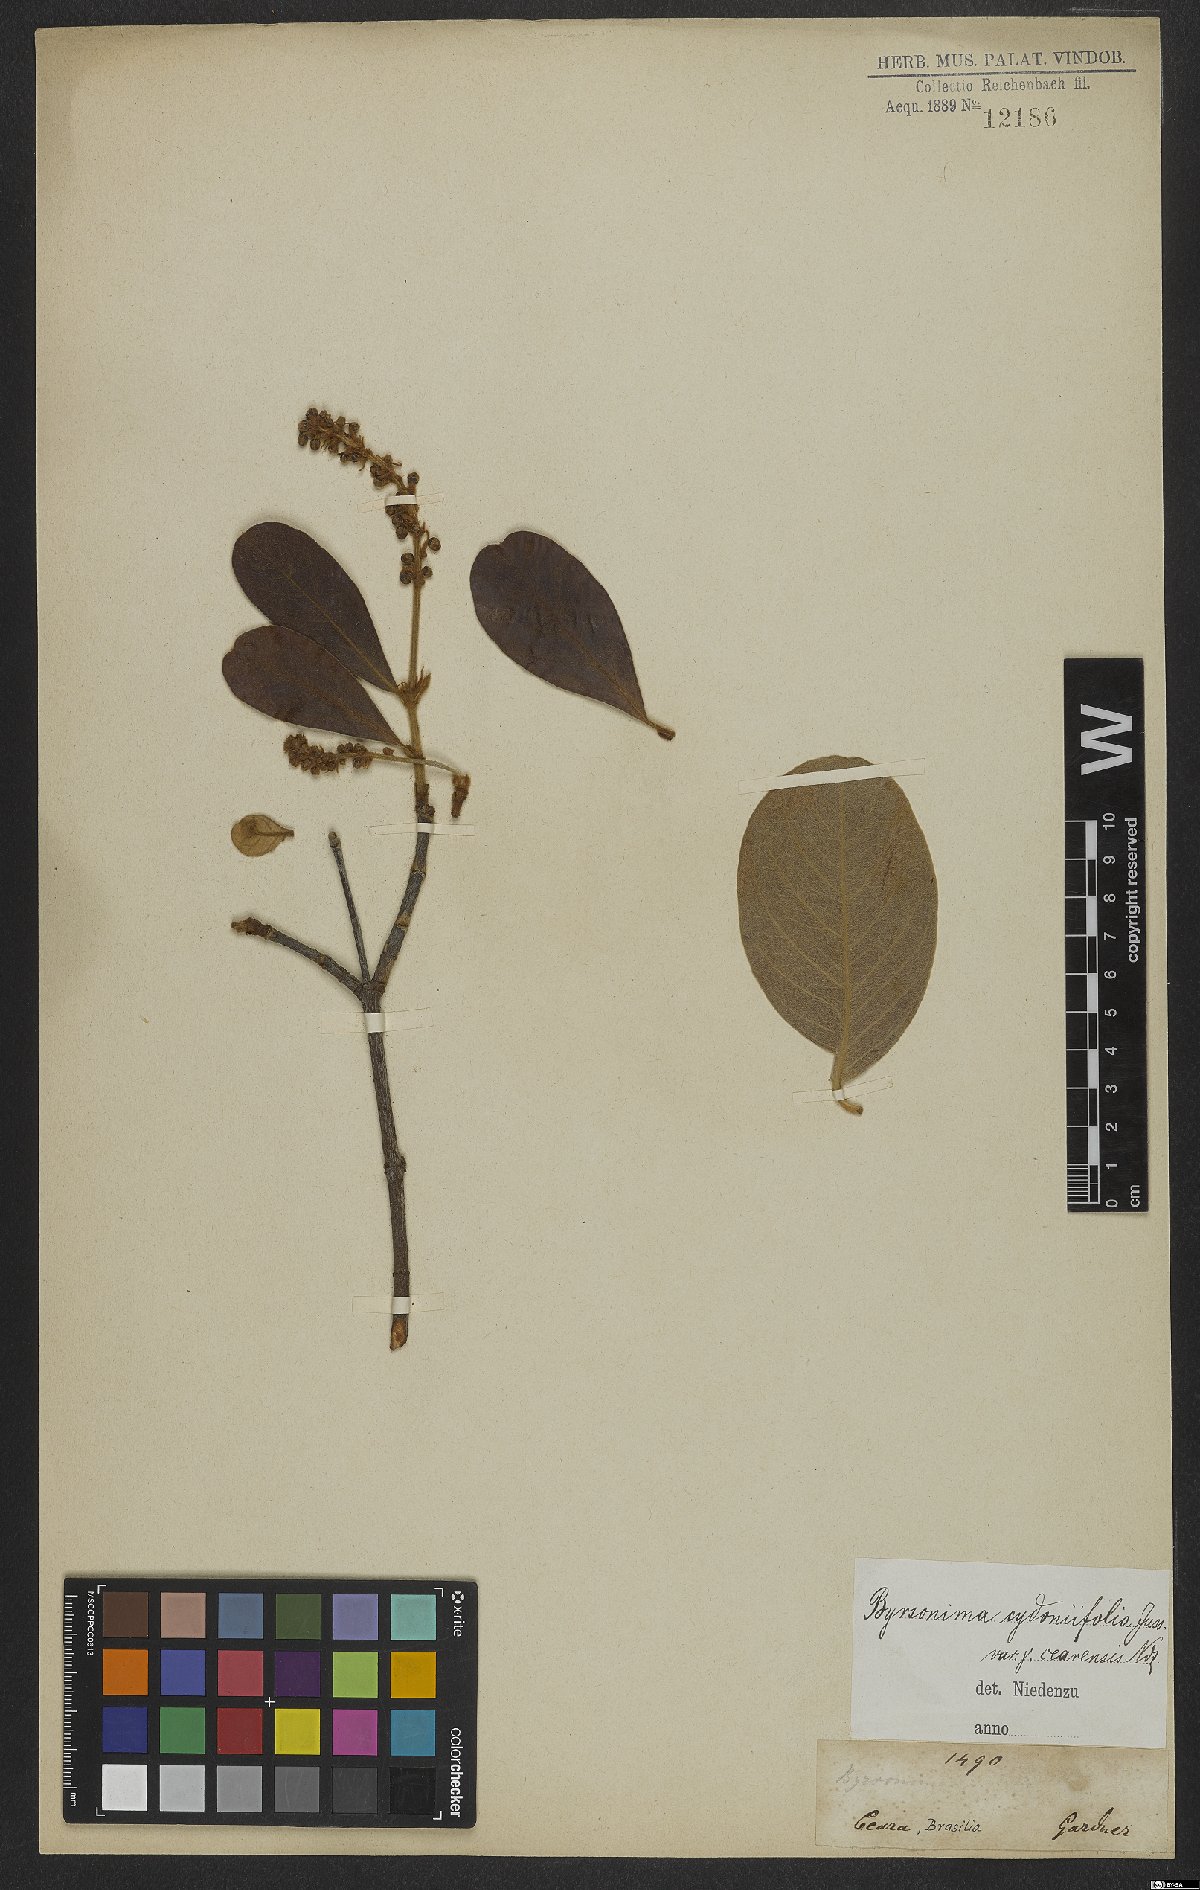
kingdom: Plantae
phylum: Tracheophyta
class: Magnoliopsida
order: Malpighiales
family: Malpighiaceae
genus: Byrsonima
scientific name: Byrsonima cydoniifolia
